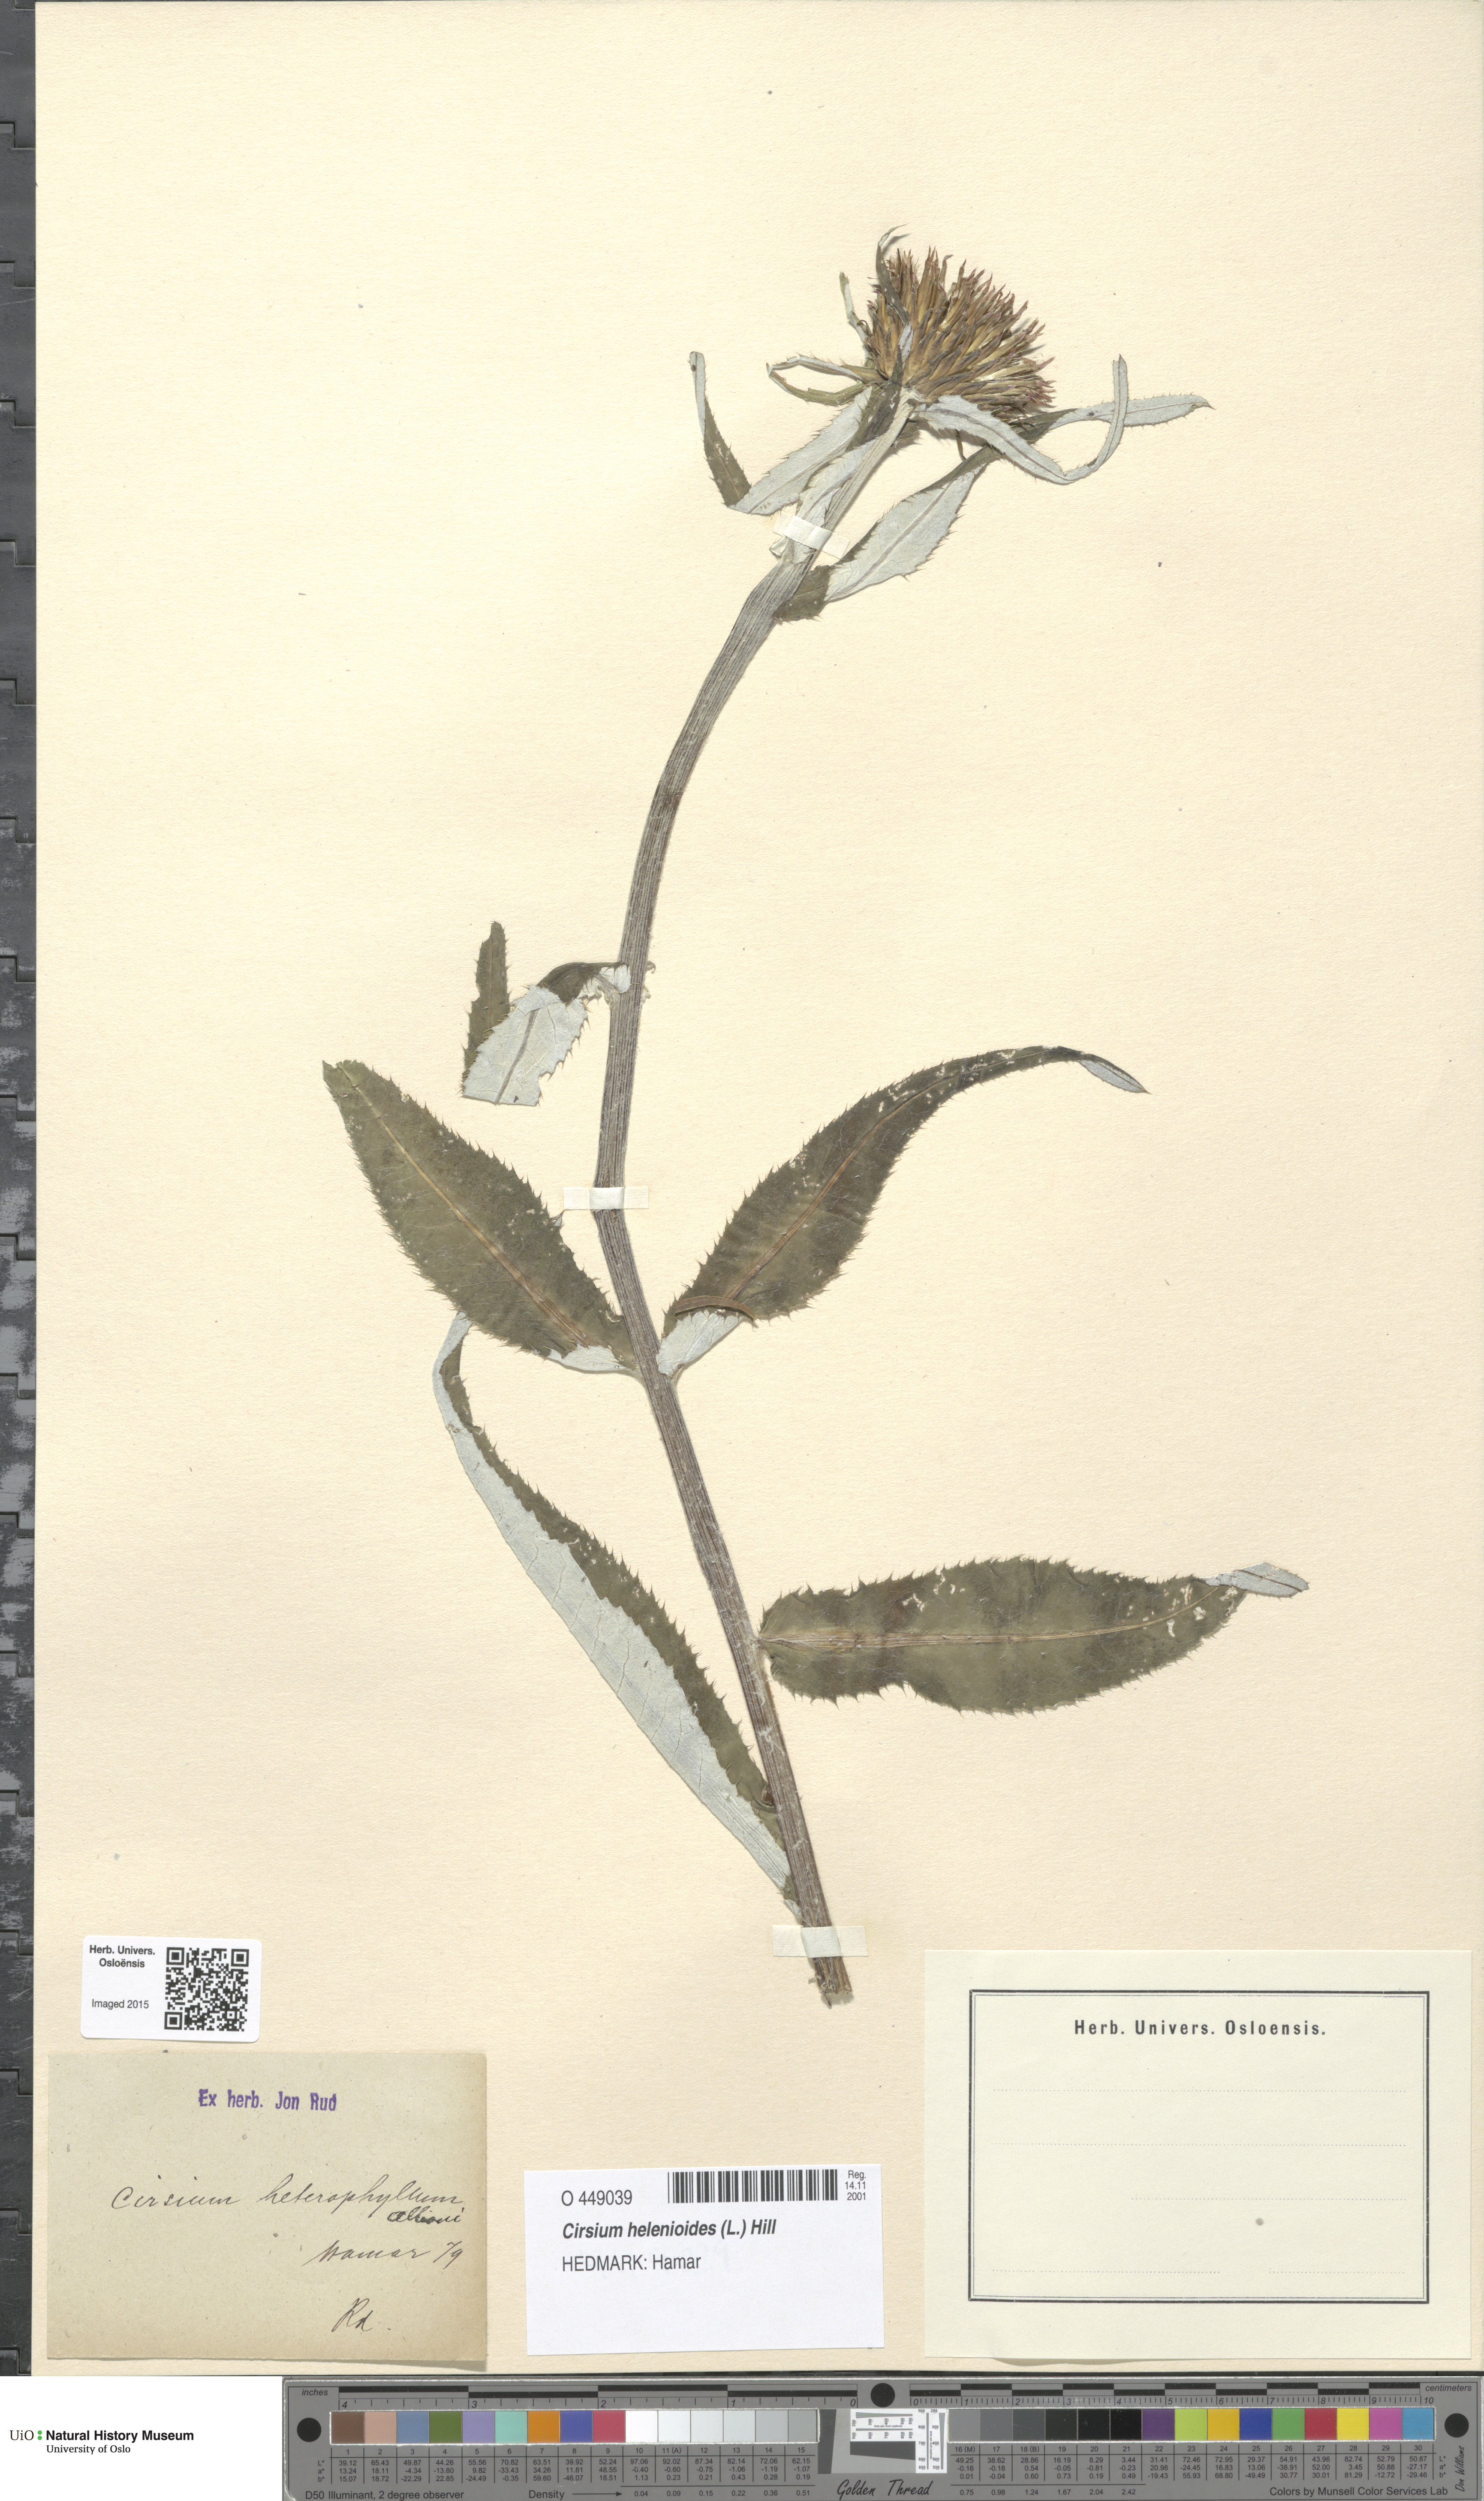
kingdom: Plantae
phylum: Tracheophyta
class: Magnoliopsida
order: Asterales
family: Asteraceae
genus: Cirsium
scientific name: Cirsium heterophyllum
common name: Melancholy thistle
